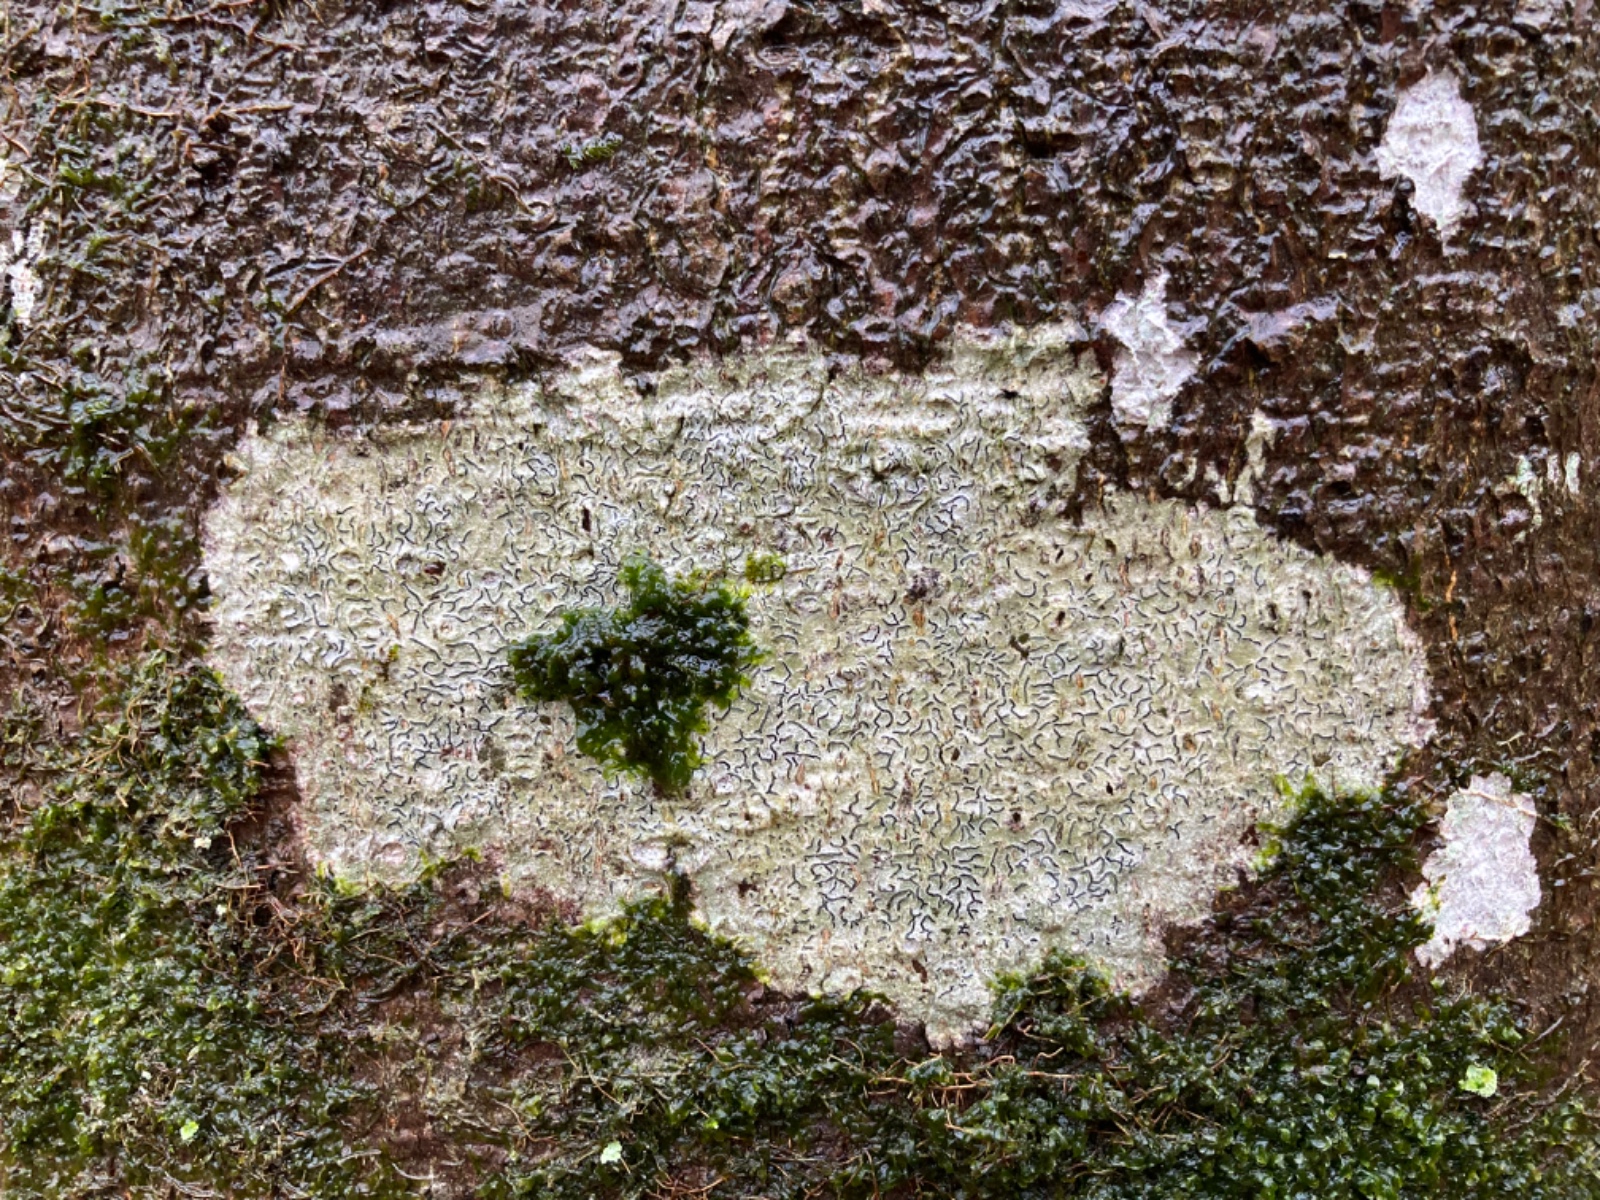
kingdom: Fungi
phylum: Ascomycota
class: Lecanoromycetes
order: Ostropales
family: Graphidaceae
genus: Graphis
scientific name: Graphis scripta
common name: almindelig skriftlav
